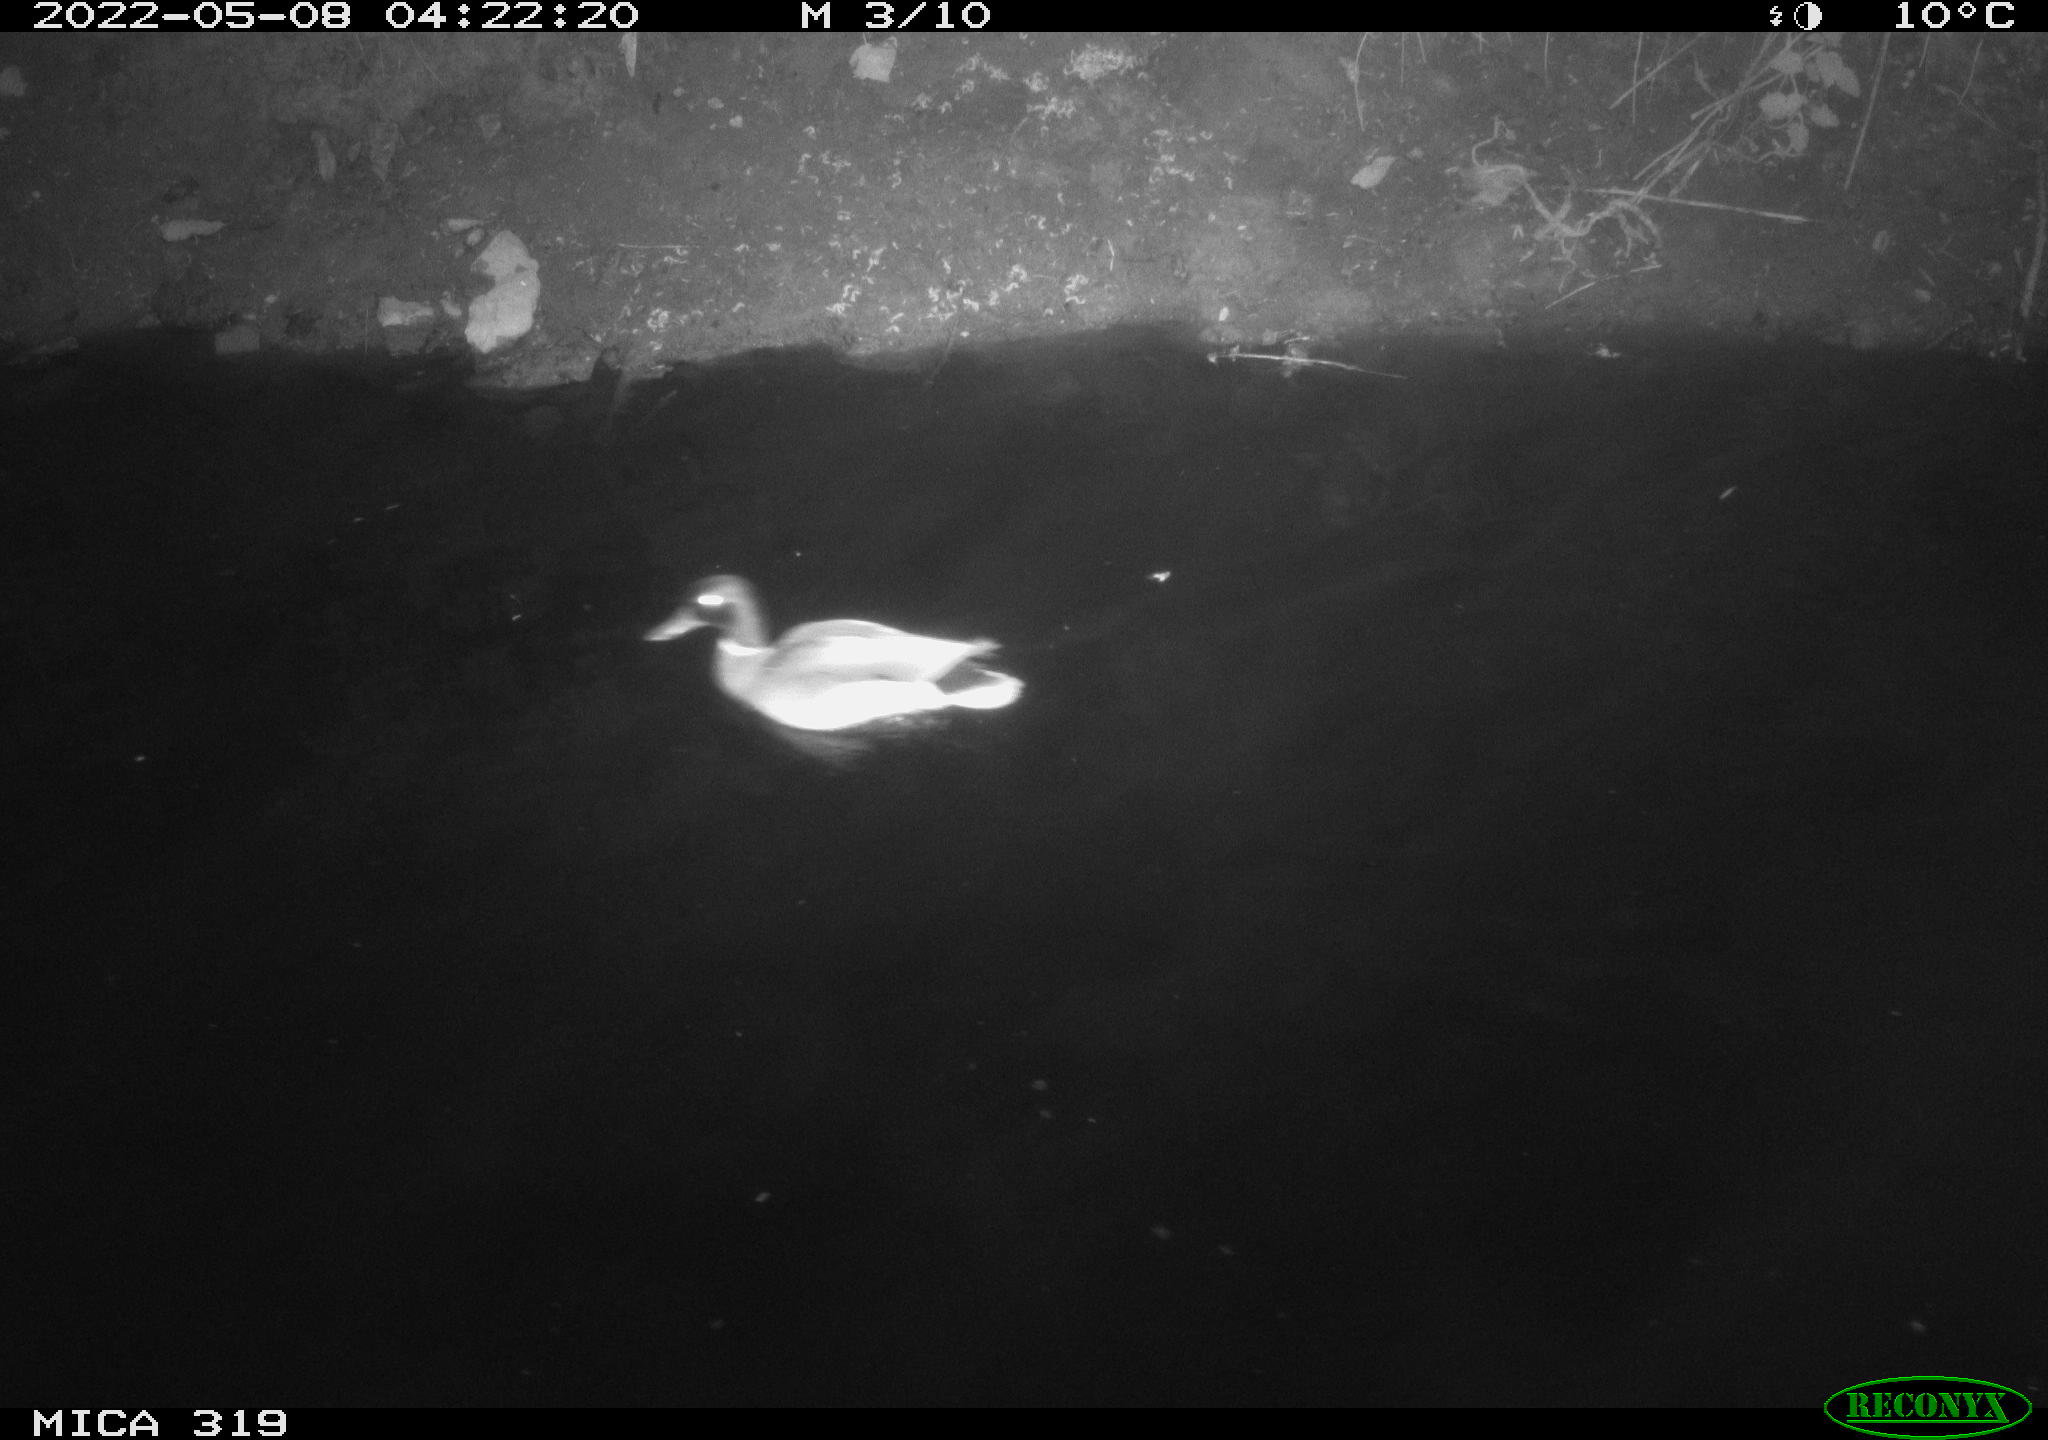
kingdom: Animalia
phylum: Chordata
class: Aves
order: Anseriformes
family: Anatidae
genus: Anas
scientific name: Anas platyrhynchos
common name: Mallard
